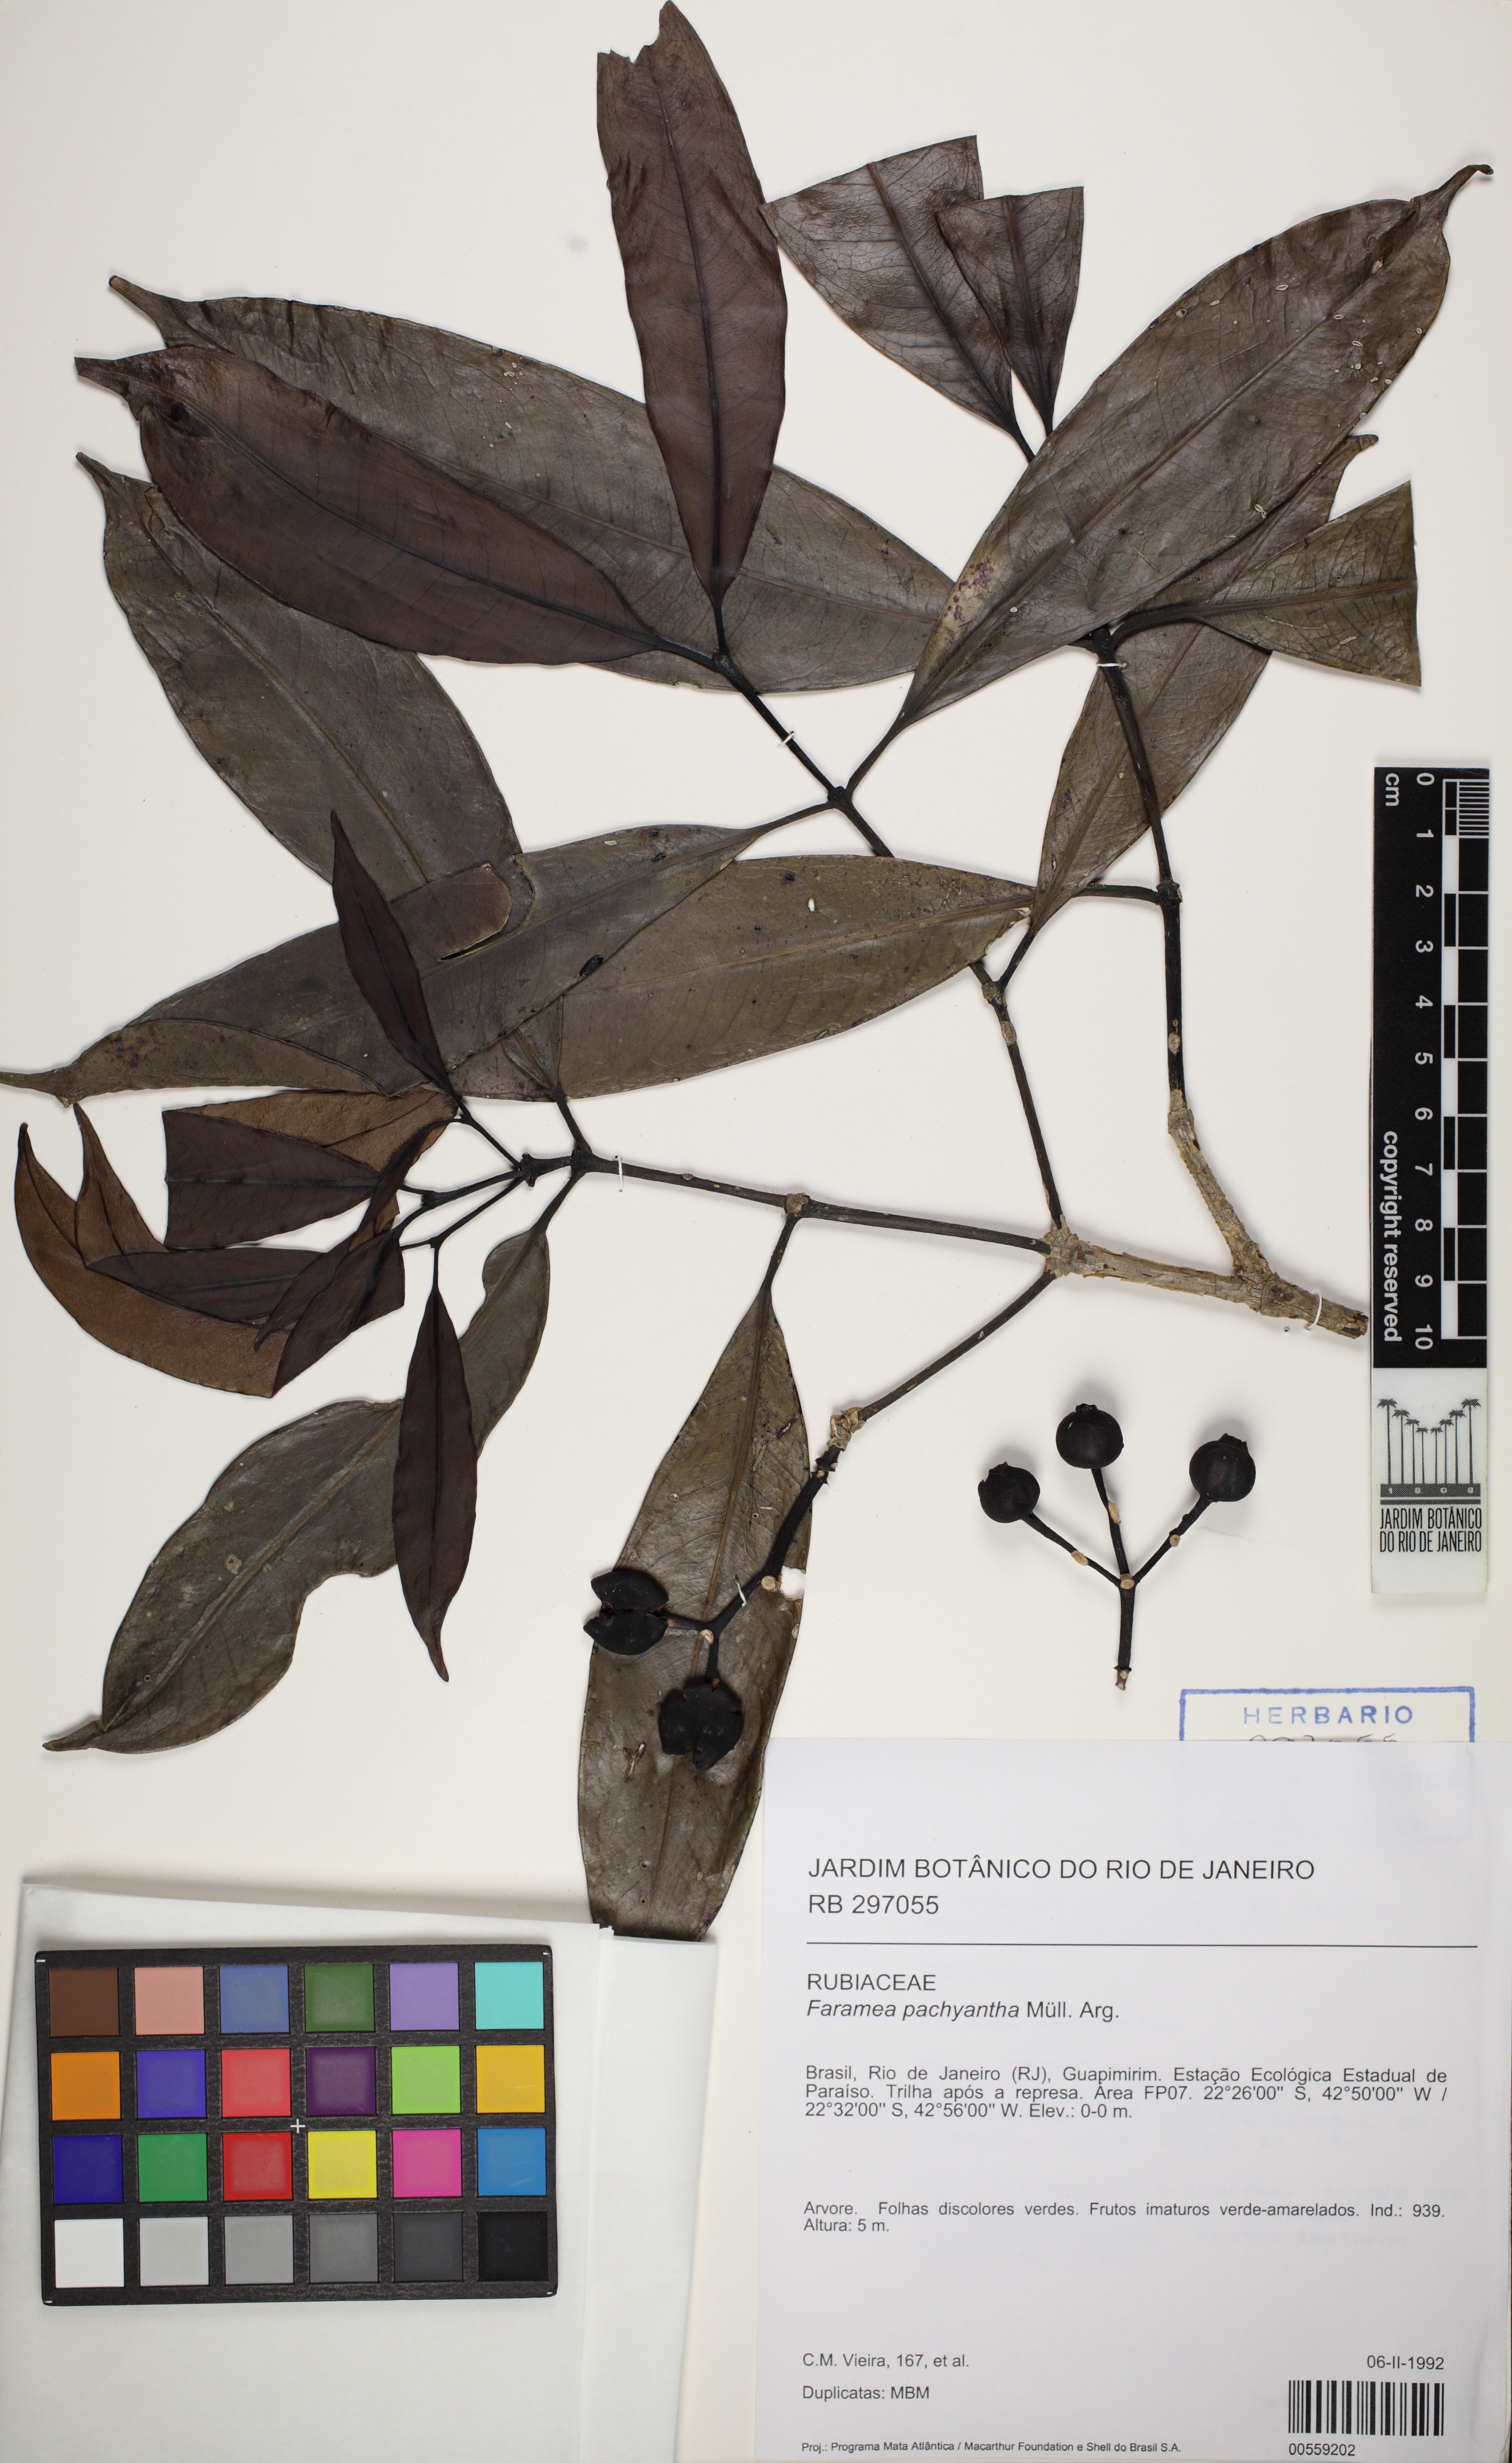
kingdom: Plantae
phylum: Tracheophyta
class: Magnoliopsida
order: Gentianales
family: Rubiaceae
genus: Faramea
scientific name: Faramea pachyantha
